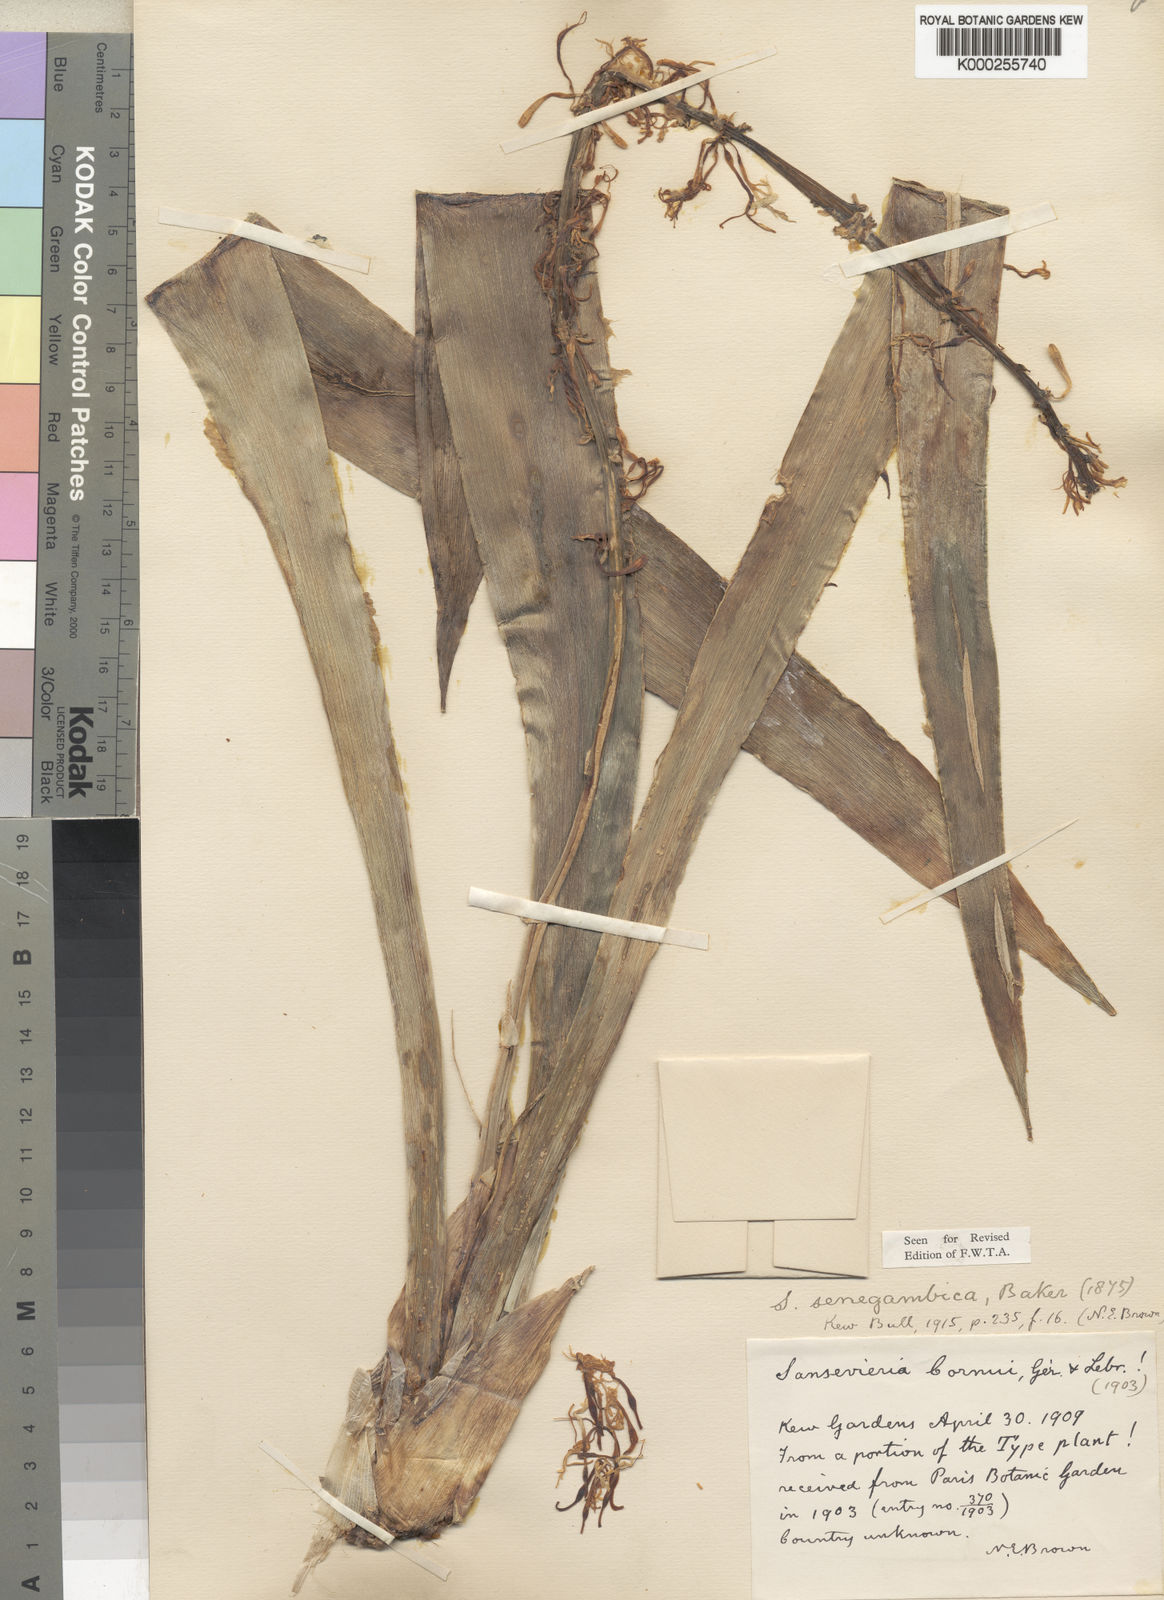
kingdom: Plantae
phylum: Tracheophyta
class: Liliopsida
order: Asparagales
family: Asparagaceae
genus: Dracaena
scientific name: Dracaena senegambica
